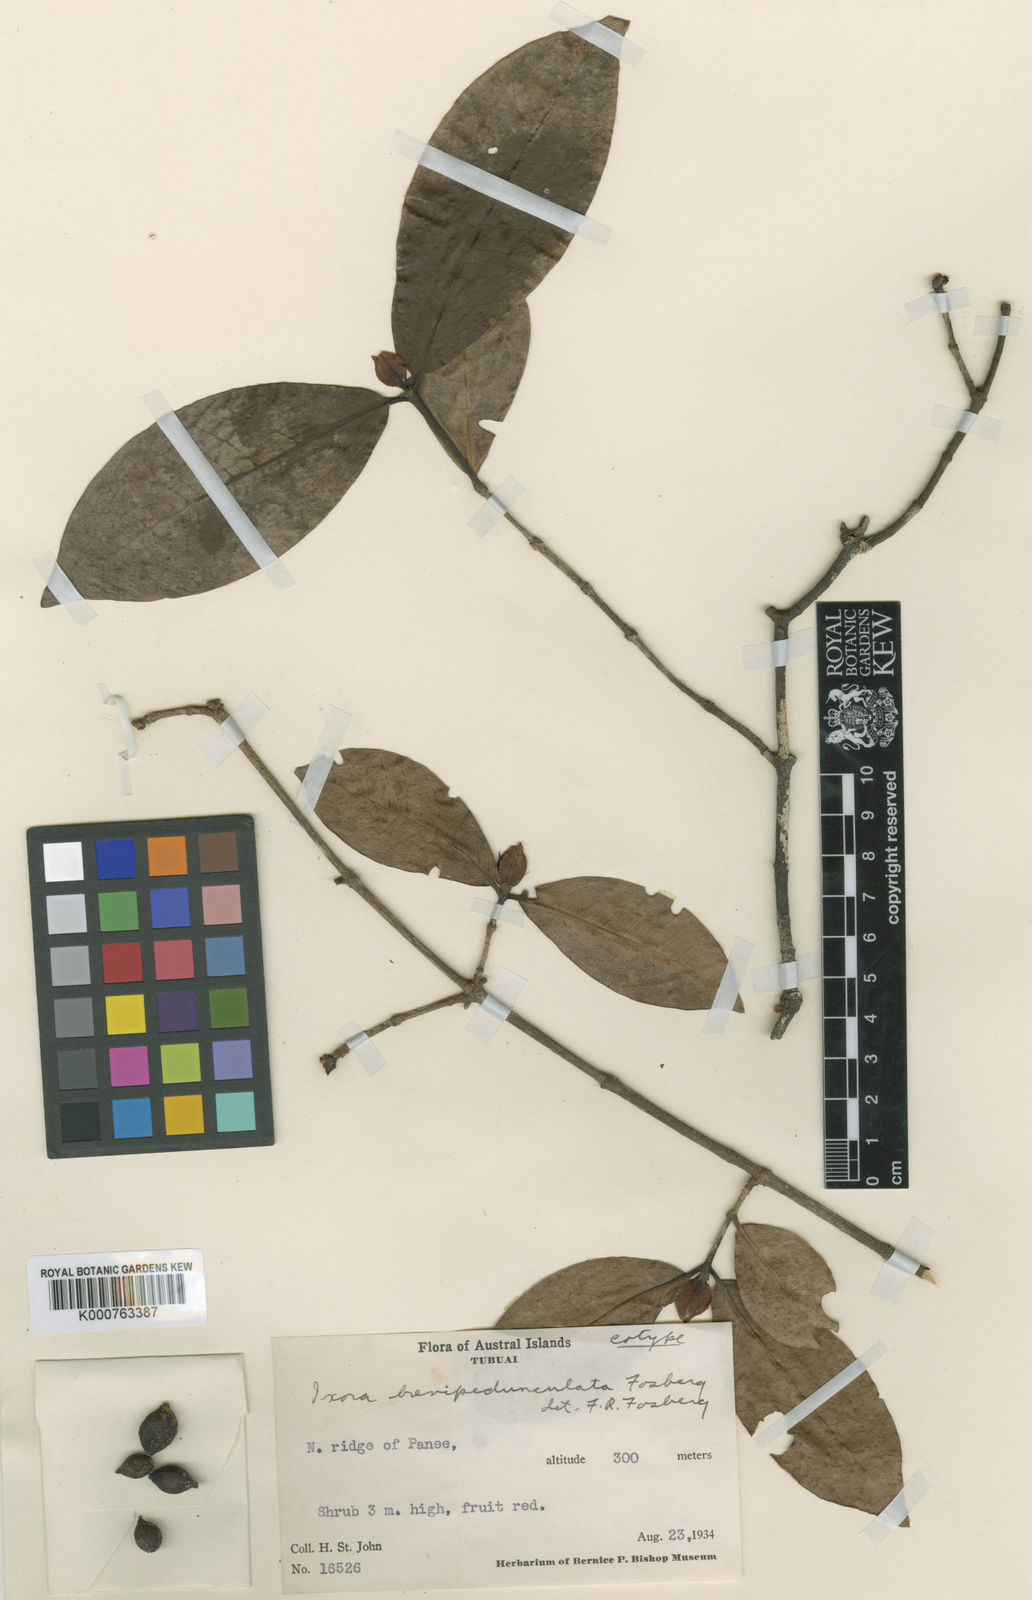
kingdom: Plantae
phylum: Tracheophyta
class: Magnoliopsida
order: Gentianales
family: Rubiaceae
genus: Ixora
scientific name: Ixora brevipedunculata
